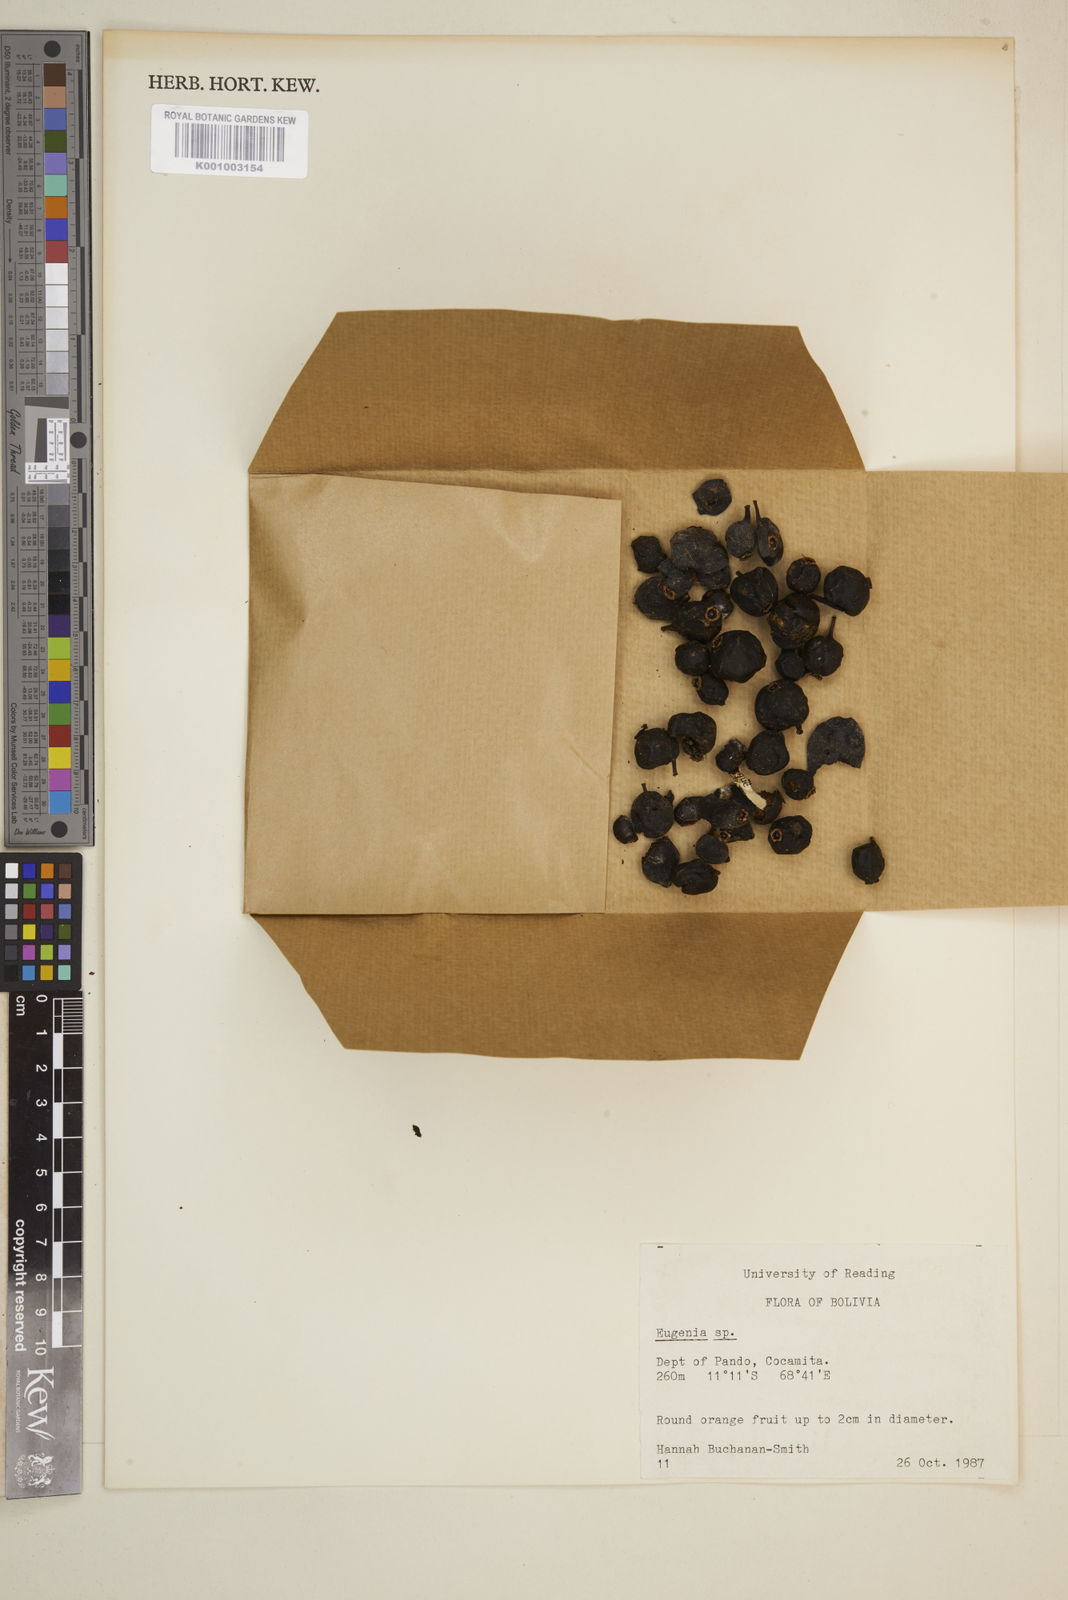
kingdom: Plantae
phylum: Tracheophyta
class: Magnoliopsida
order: Myrtales
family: Myrtaceae
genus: Eugenia
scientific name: Eugenia
